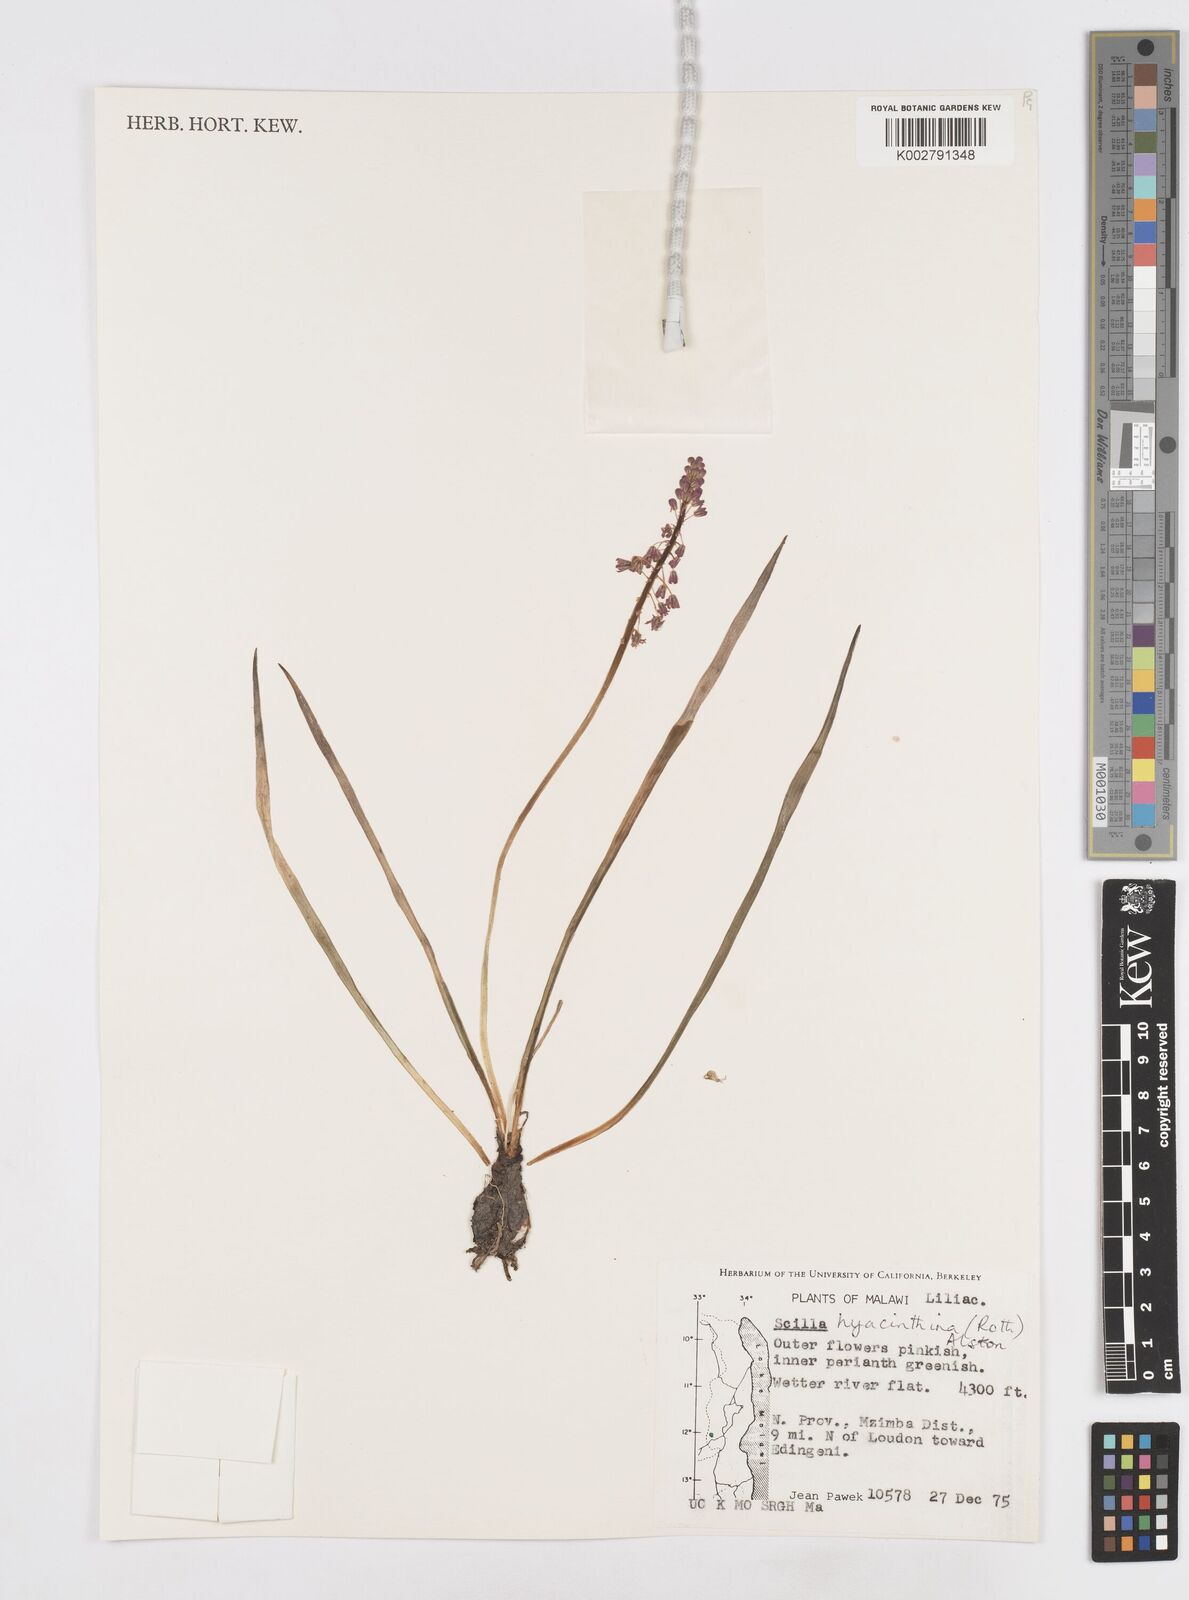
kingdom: Plantae
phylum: Tracheophyta
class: Liliopsida
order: Asparagales
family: Asparagaceae
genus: Ledebouria
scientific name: Ledebouria revoluta
